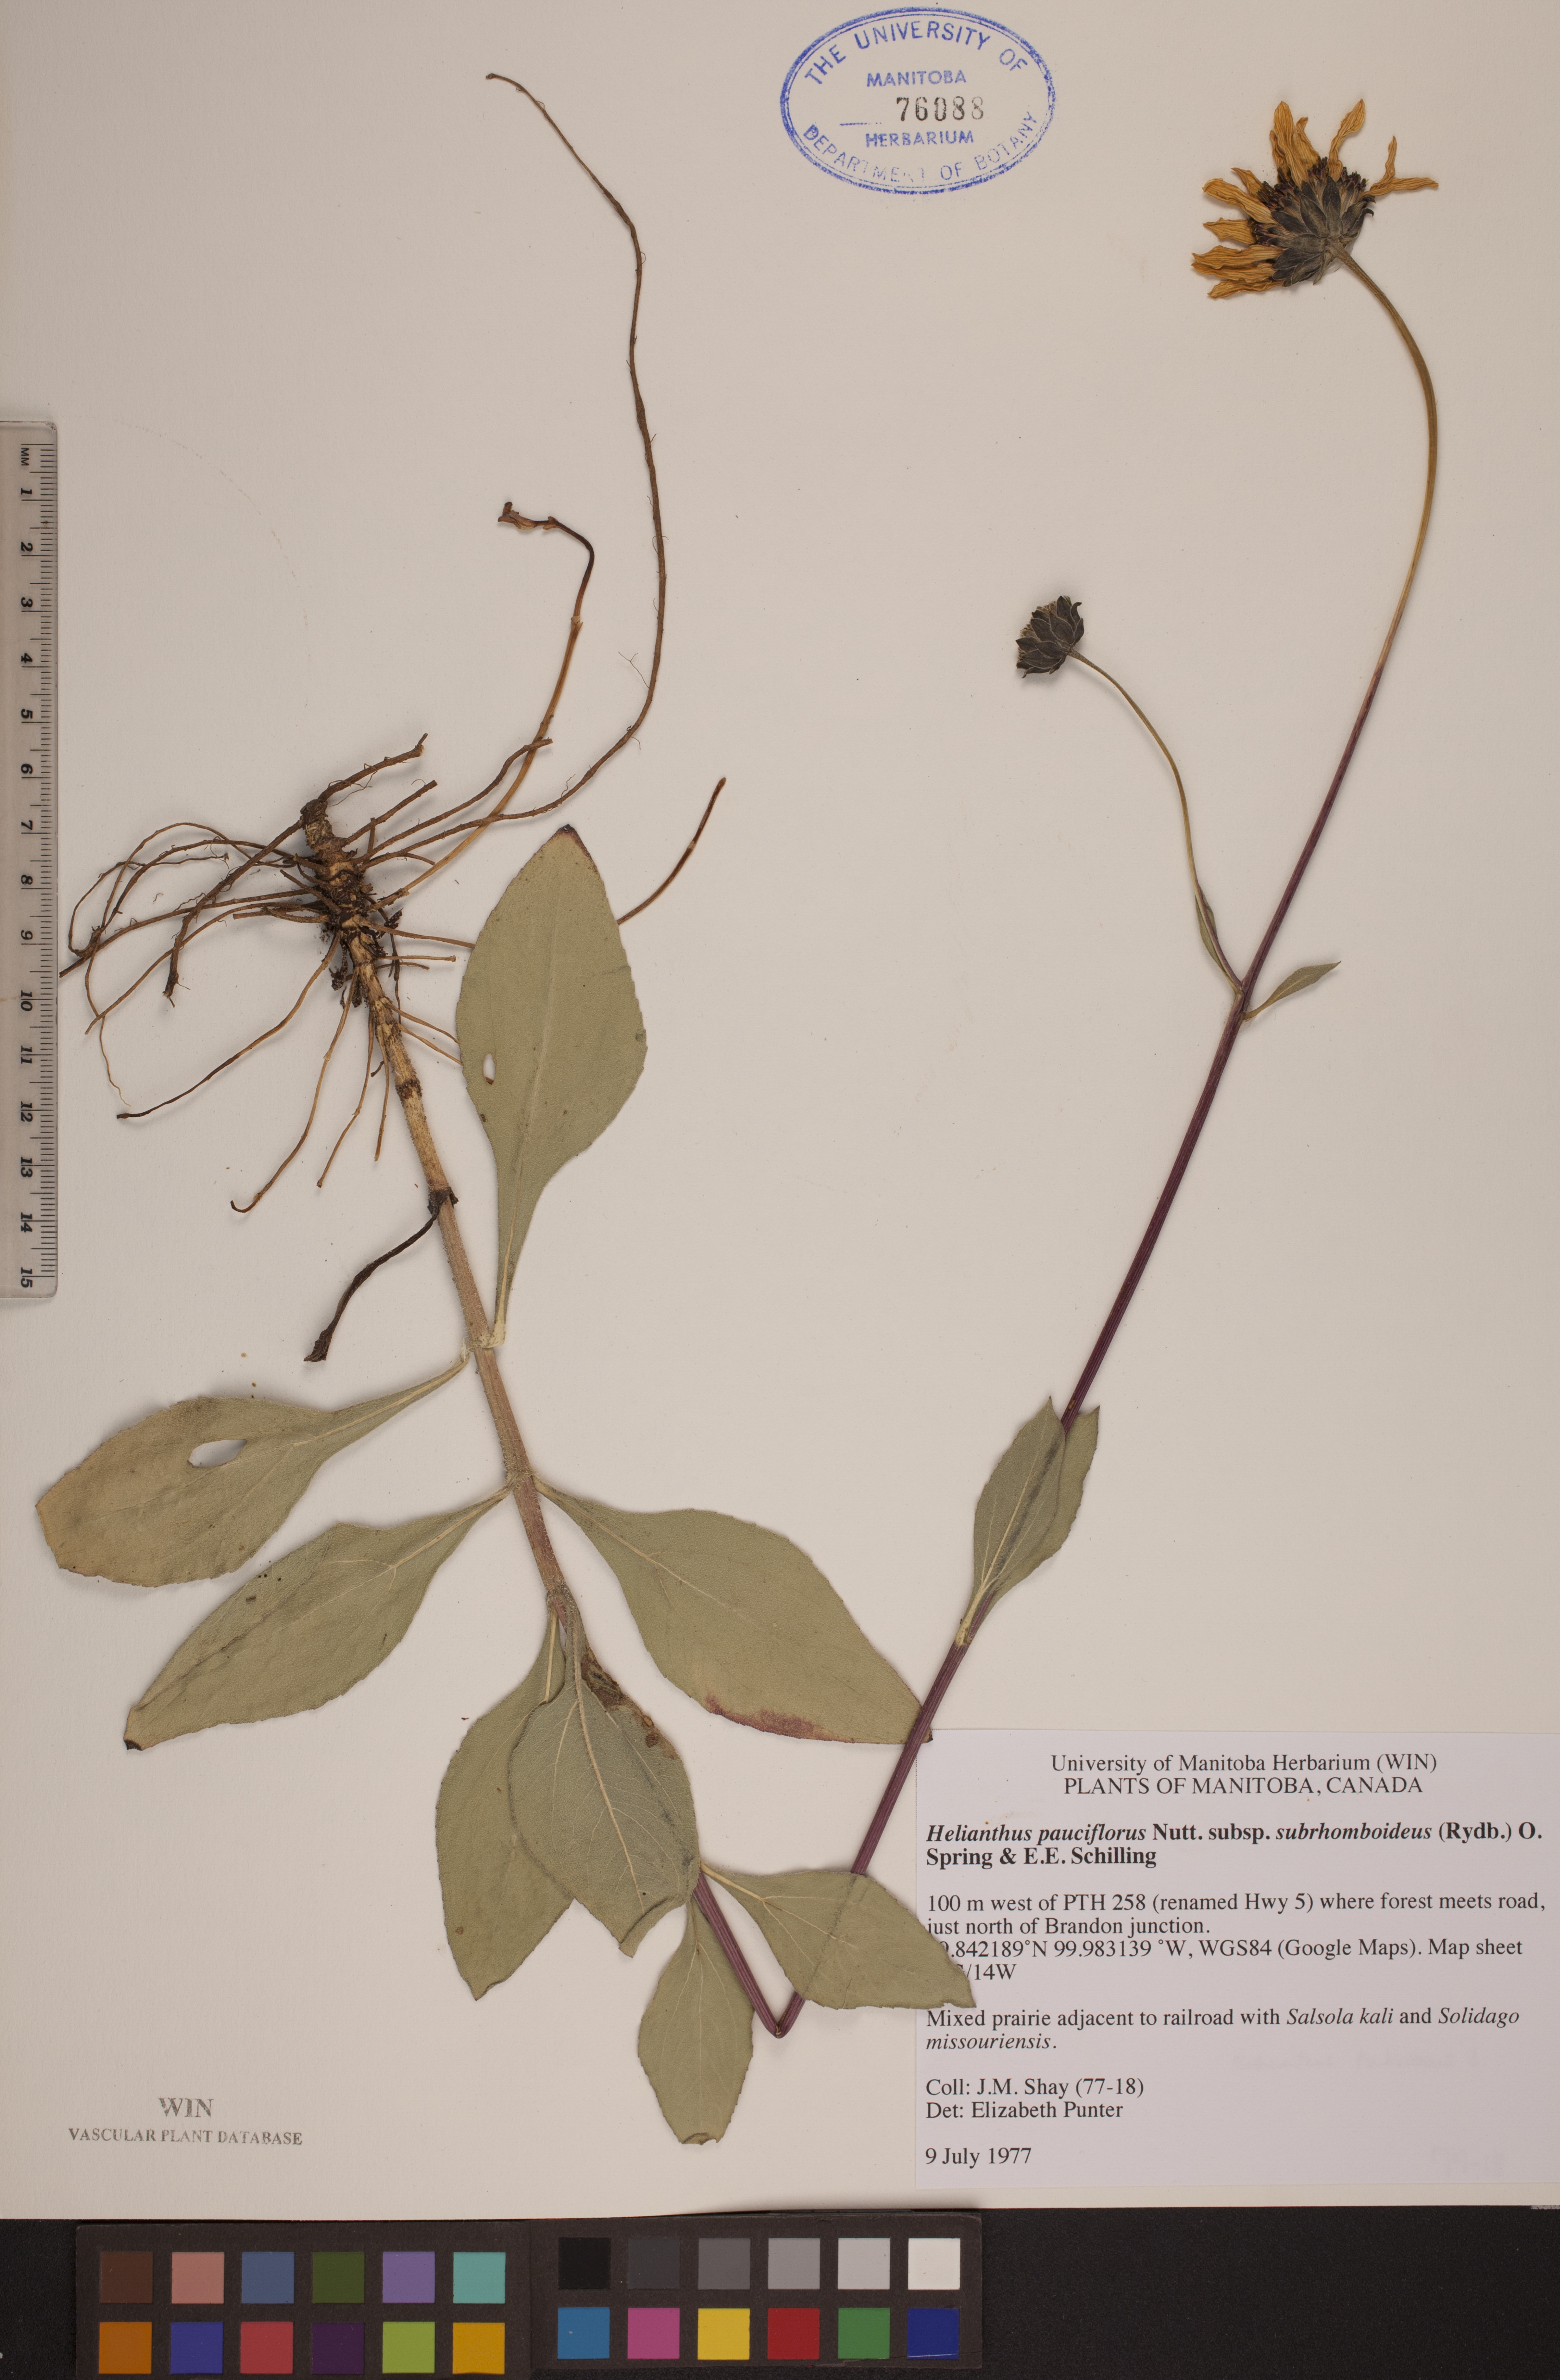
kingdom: Plantae
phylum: Tracheophyta
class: Magnoliopsida
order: Asterales
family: Asteraceae
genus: Helianthus
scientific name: Helianthus pauciflorus
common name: Stiff sunflower
